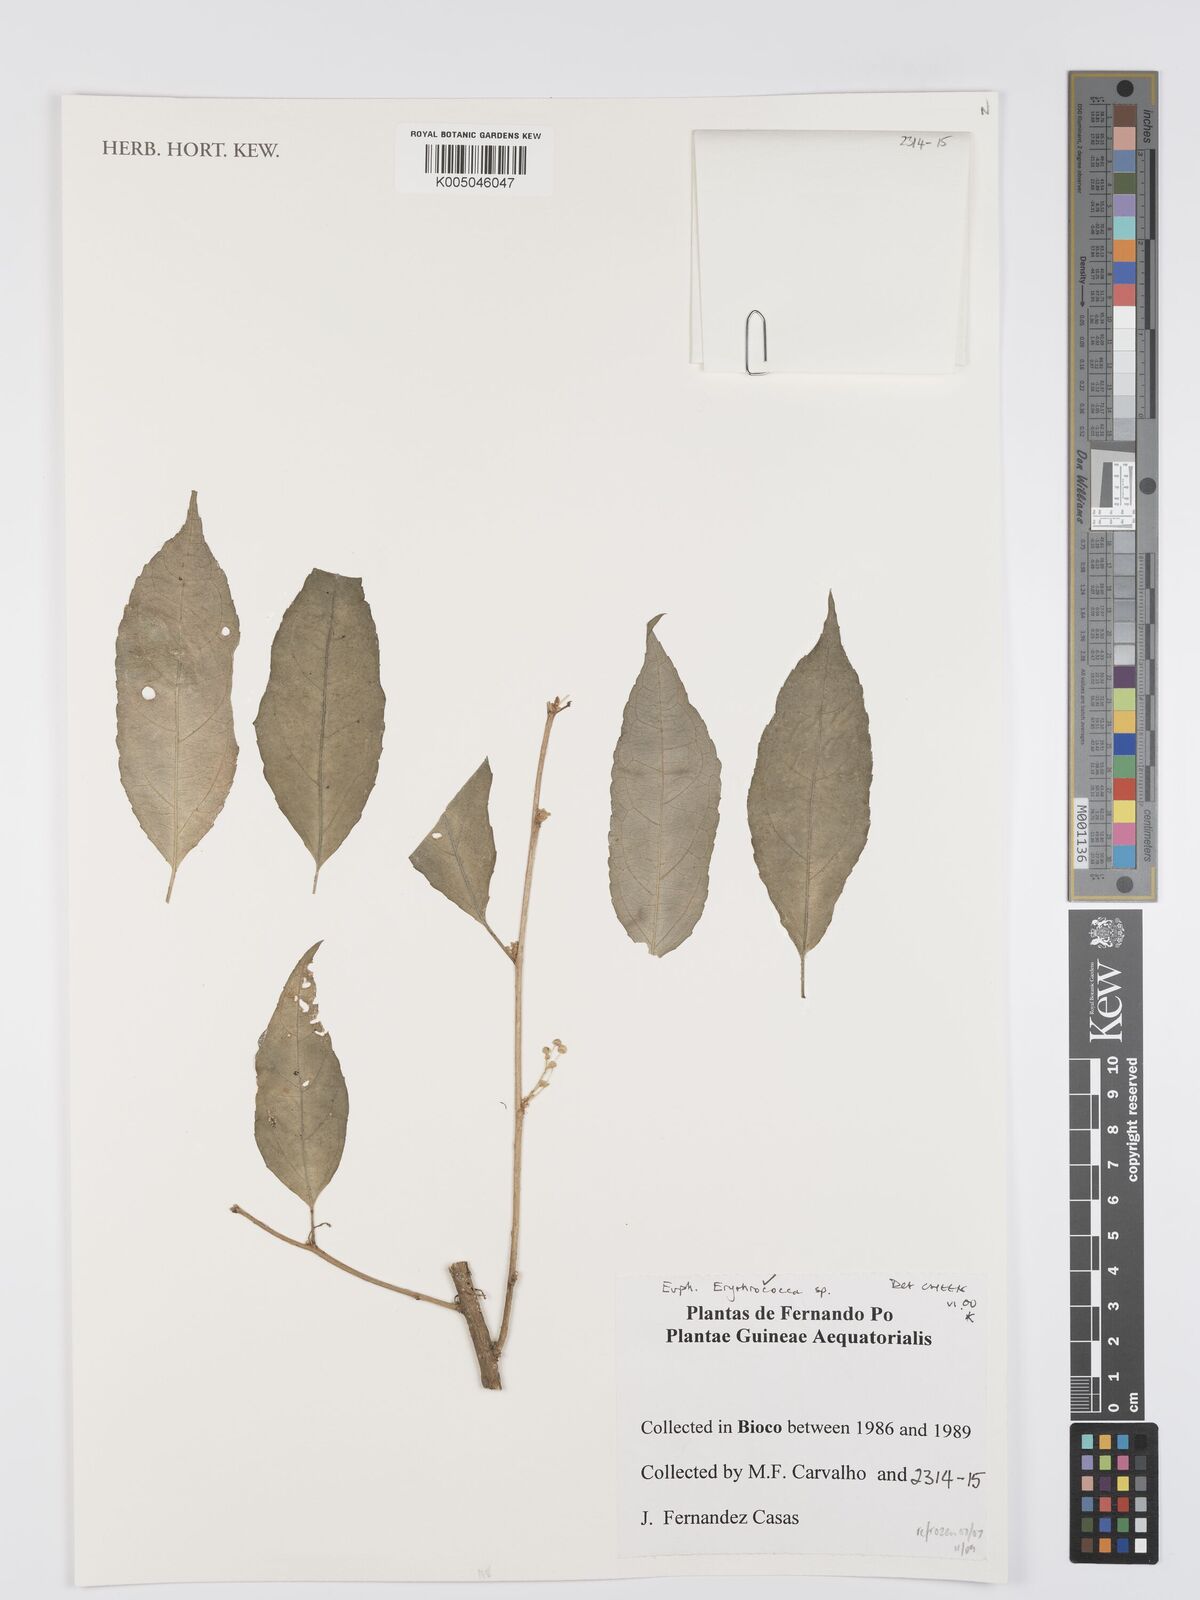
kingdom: Plantae
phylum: Tracheophyta
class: Magnoliopsida
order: Malpighiales
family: Euphorbiaceae
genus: Erythrococca
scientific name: Erythrococca
